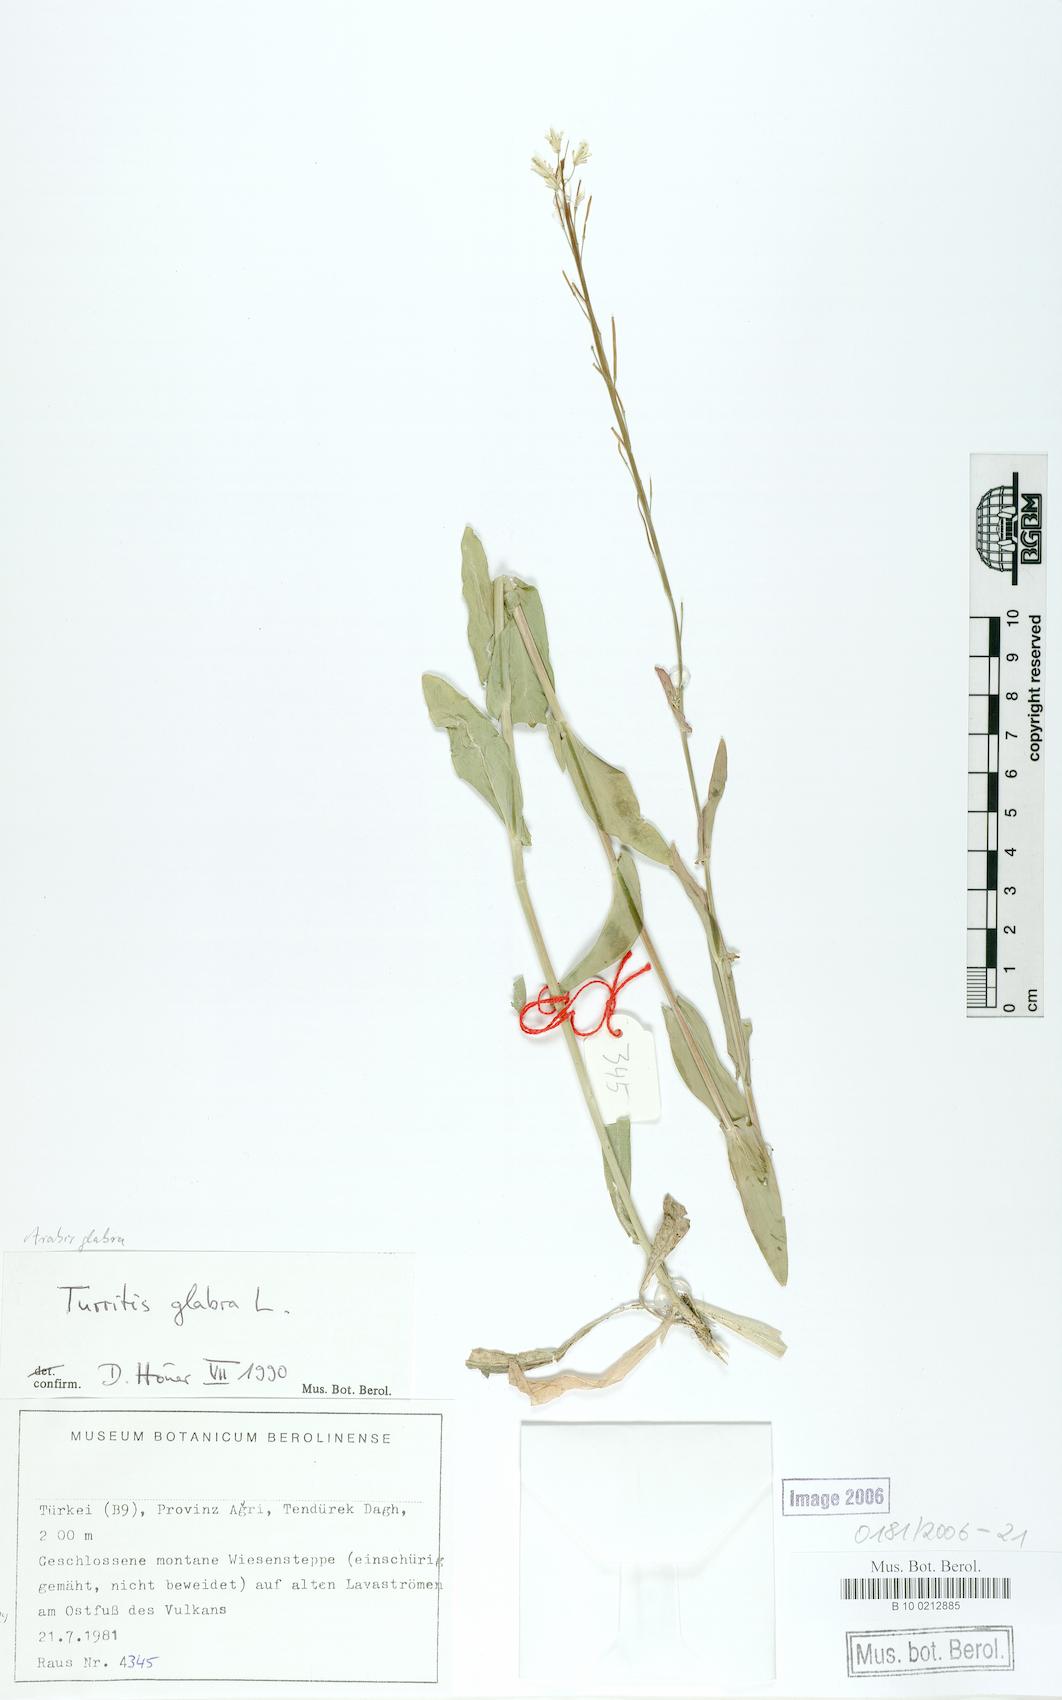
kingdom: Plantae
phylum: Tracheophyta
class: Magnoliopsida
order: Brassicales
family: Brassicaceae
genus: Turritis
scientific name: Turritis glabra
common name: Tower rockcress
